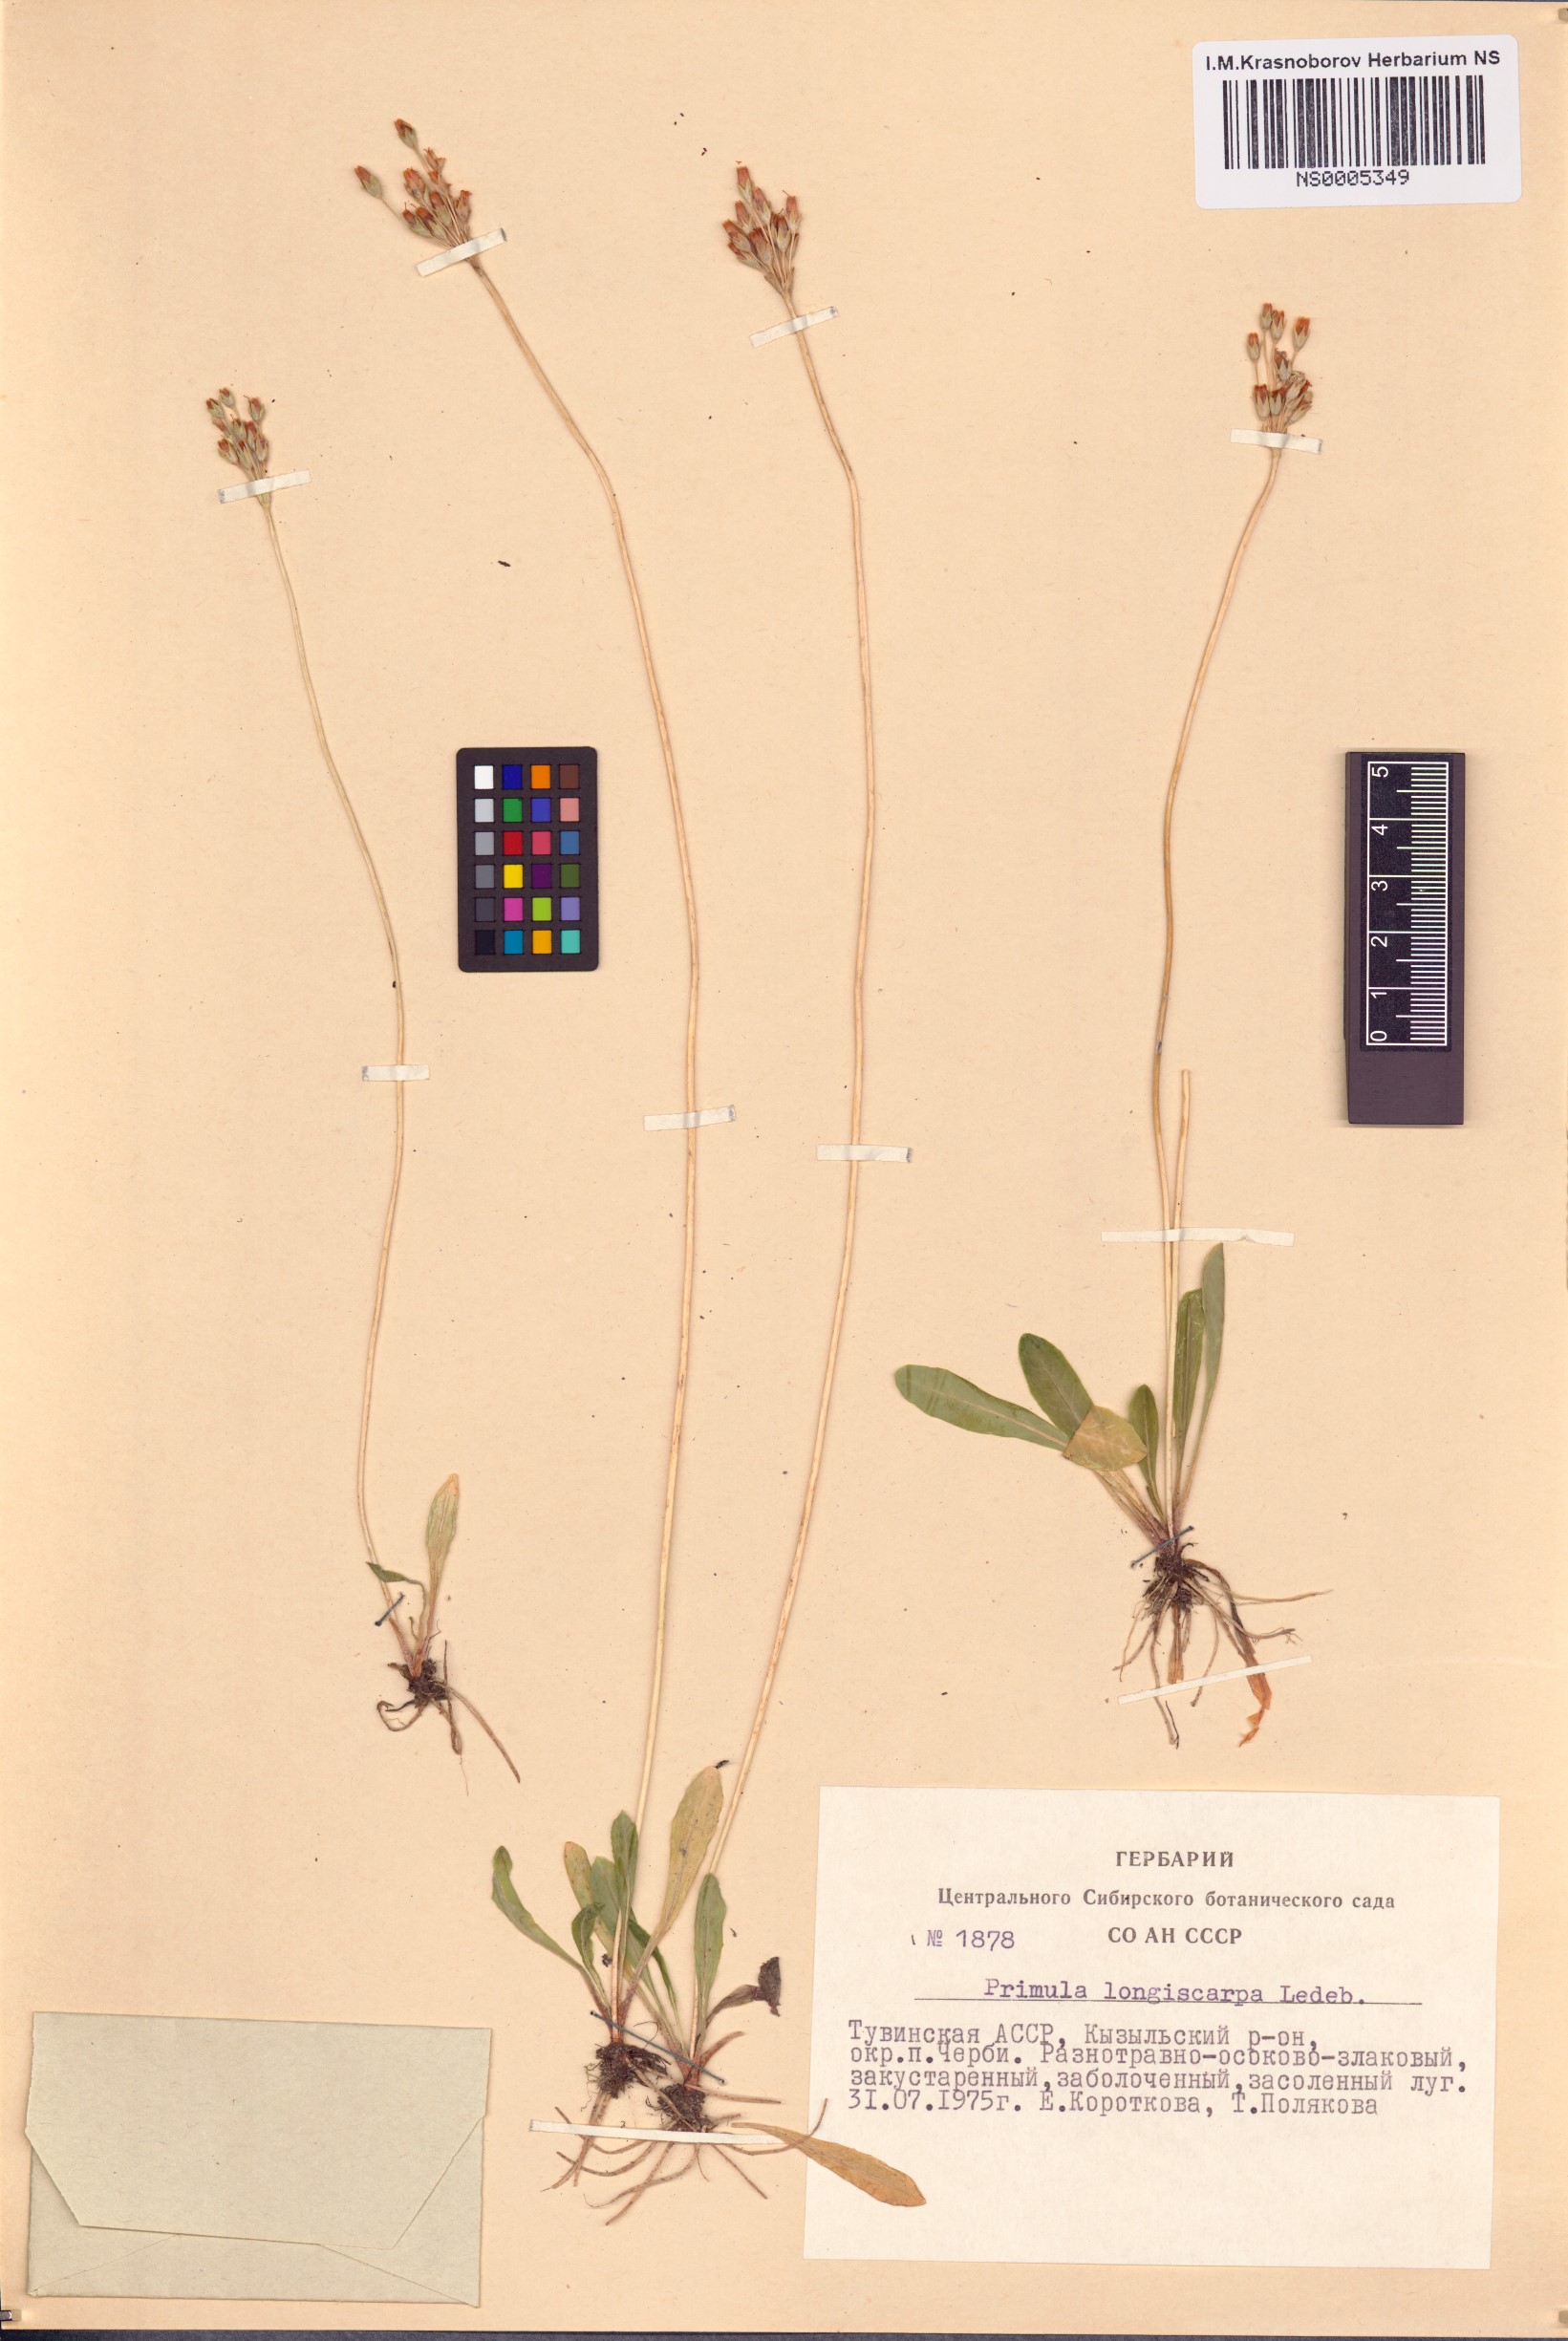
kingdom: Plantae
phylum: Tracheophyta
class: Magnoliopsida
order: Ericales
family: Primulaceae
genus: Primula
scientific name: Primula longiscapa
